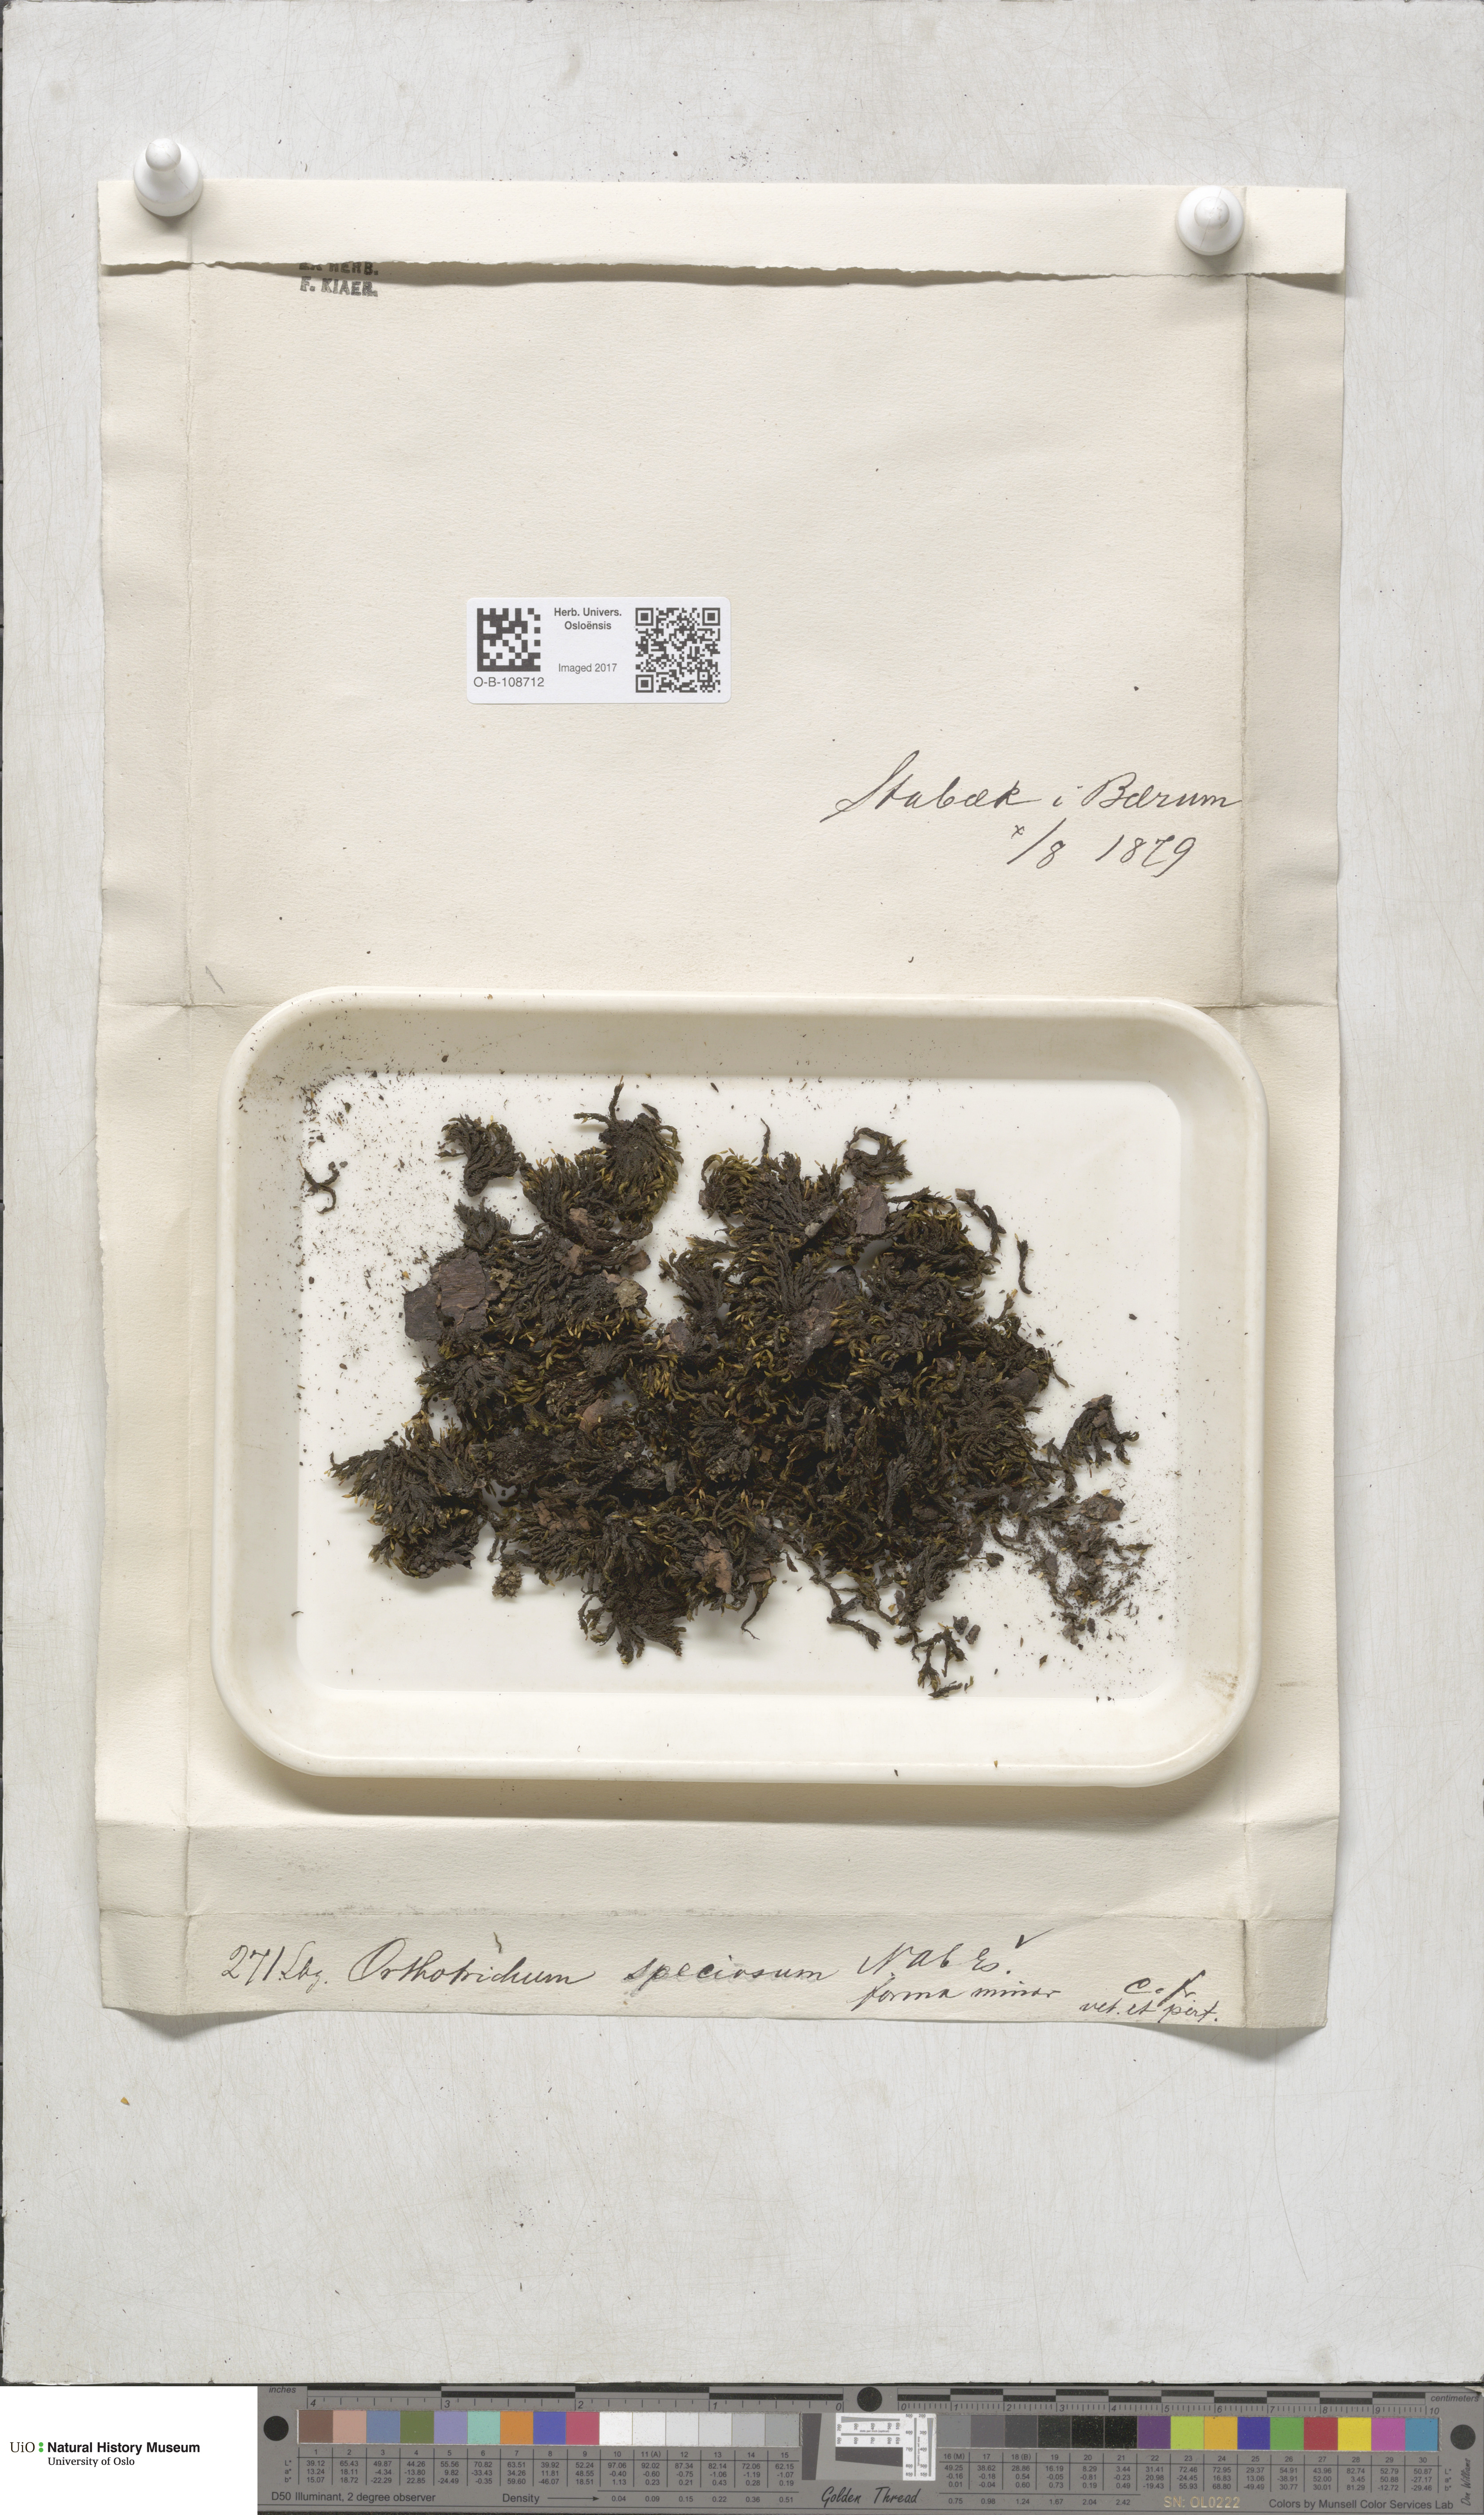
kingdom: Plantae
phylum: Bryophyta
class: Bryopsida
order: Orthotrichales
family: Orthotrichaceae
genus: Lewinskya
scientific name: Lewinskya speciosa
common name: Showy bristle moss
